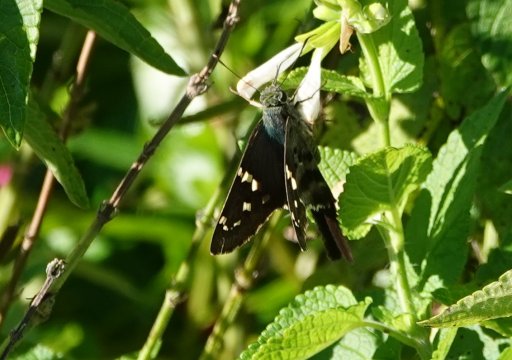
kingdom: Animalia
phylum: Arthropoda
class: Insecta
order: Lepidoptera
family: Hesperiidae
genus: Urbanus
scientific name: Urbanus proteus
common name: Long-tailed Skipper
